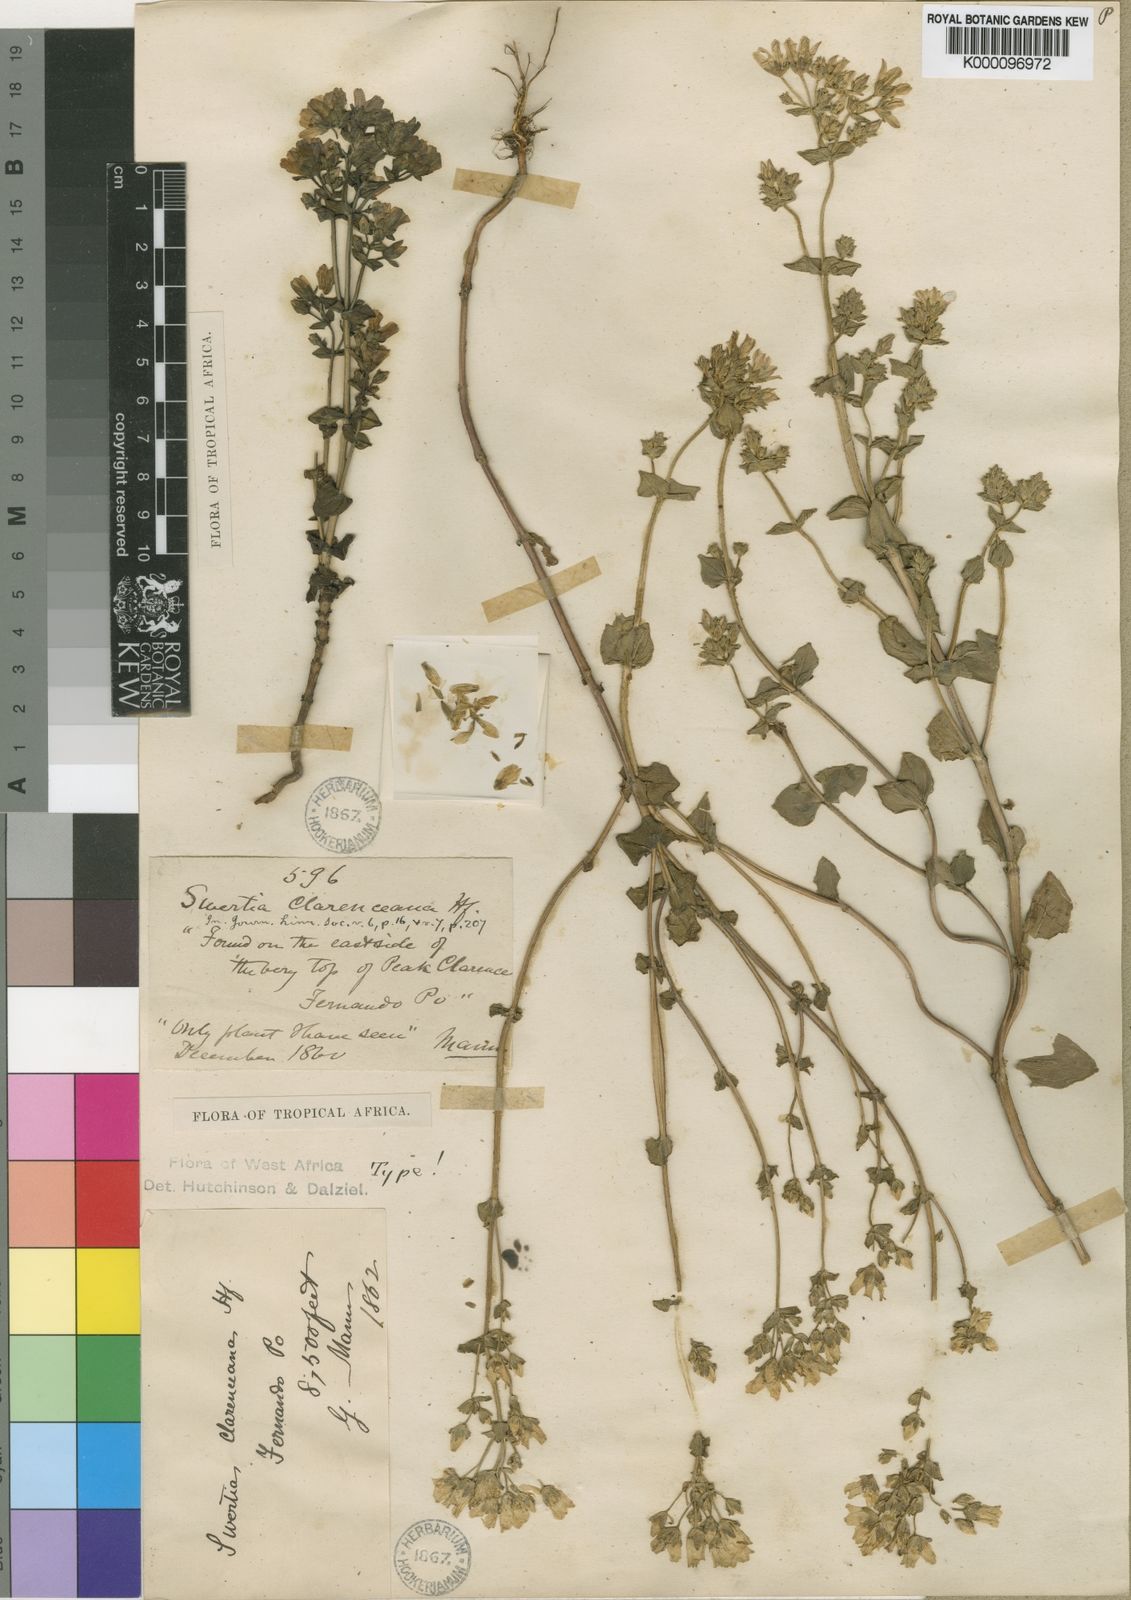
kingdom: Plantae
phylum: Tracheophyta
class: Magnoliopsida
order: Gentianales
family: Gentianaceae
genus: Swertia
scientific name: Swertia abyssinica
